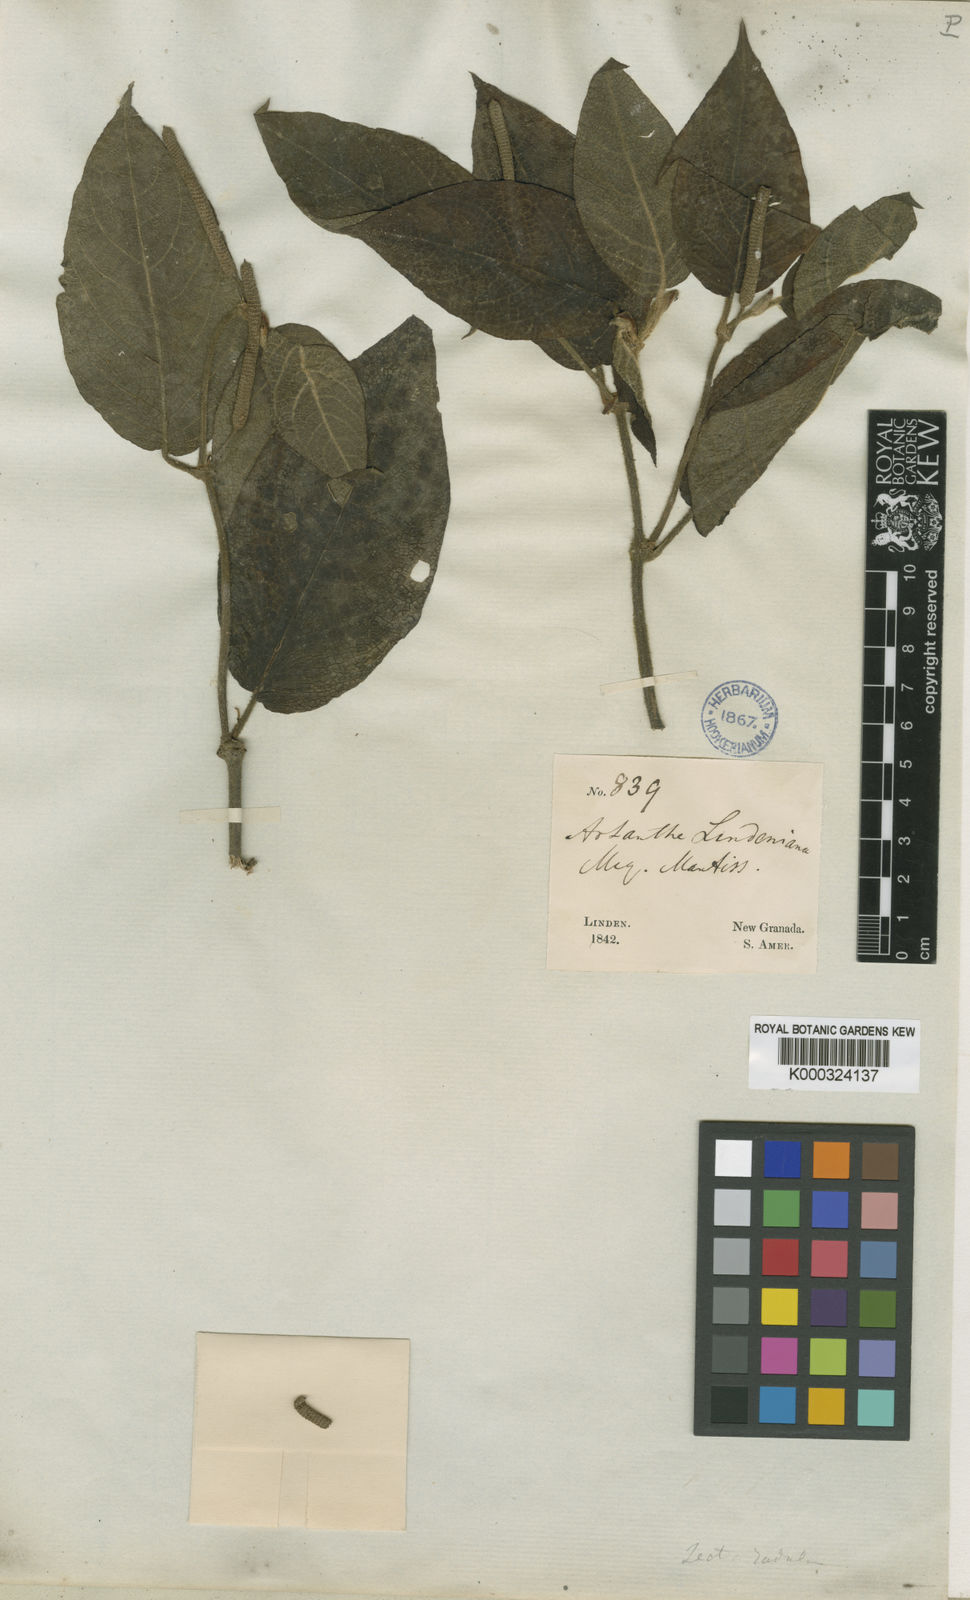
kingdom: Plantae
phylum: Tracheophyta
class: Magnoliopsida
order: Piperales
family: Piperaceae
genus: Piper
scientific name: Piper artanthe
